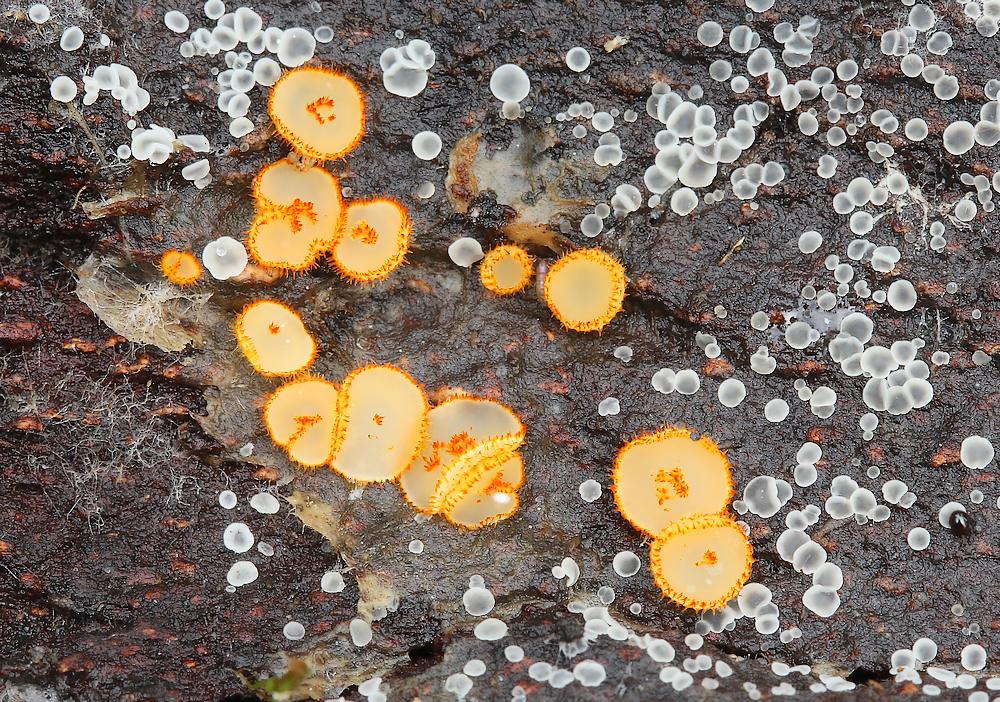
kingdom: Fungi
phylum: Ascomycota
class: Leotiomycetes
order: Helotiales
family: Arachnopezizaceae
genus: Arachnopeziza
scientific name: Arachnopeziza aurelia
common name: flamme-spindskive
